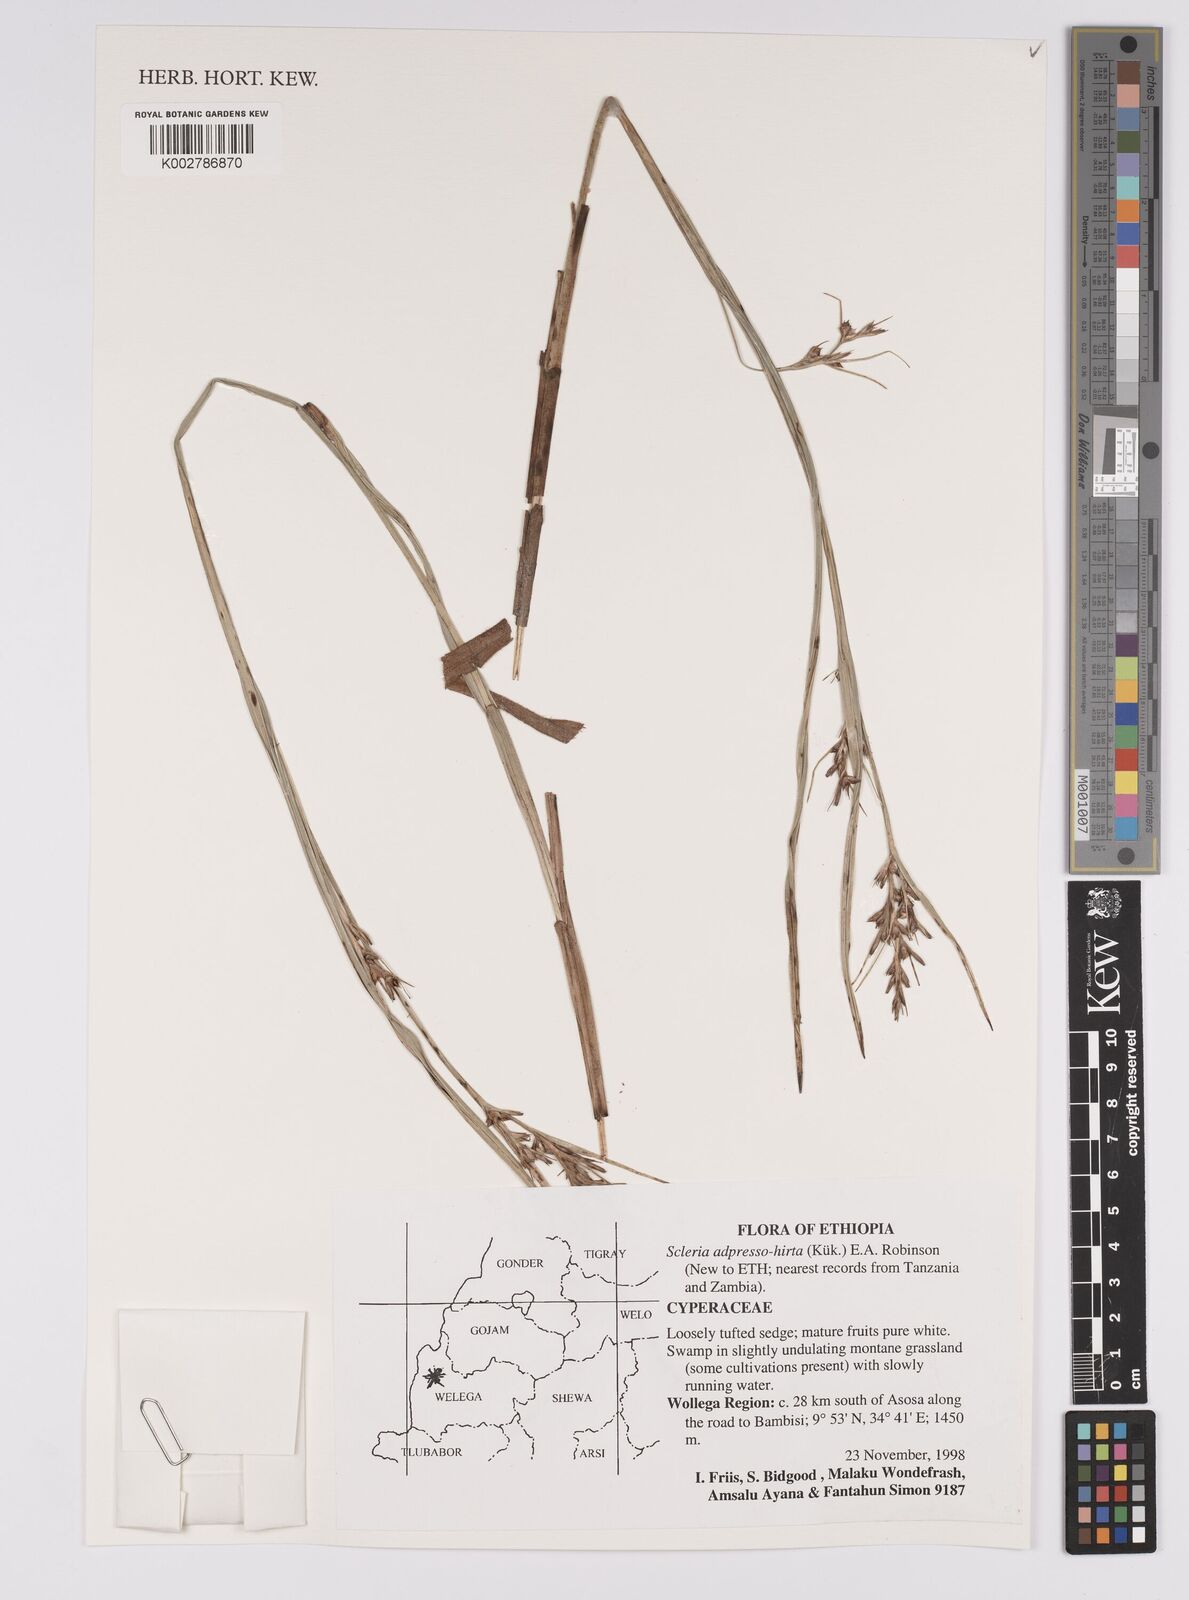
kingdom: Plantae
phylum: Tracheophyta
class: Liliopsida
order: Poales
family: Cyperaceae
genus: Scleria
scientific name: Scleria adpressohirta
